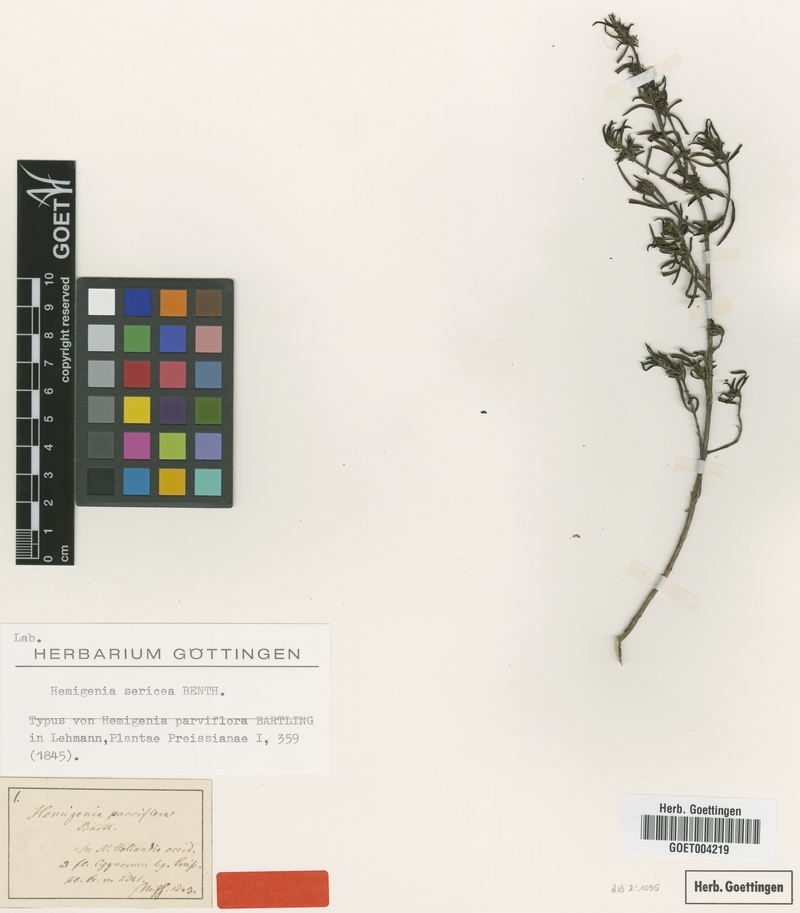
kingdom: Plantae
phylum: Tracheophyta
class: Magnoliopsida
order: Lamiales
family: Lamiaceae
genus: Hemigenia
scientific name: Hemigenia sericea
